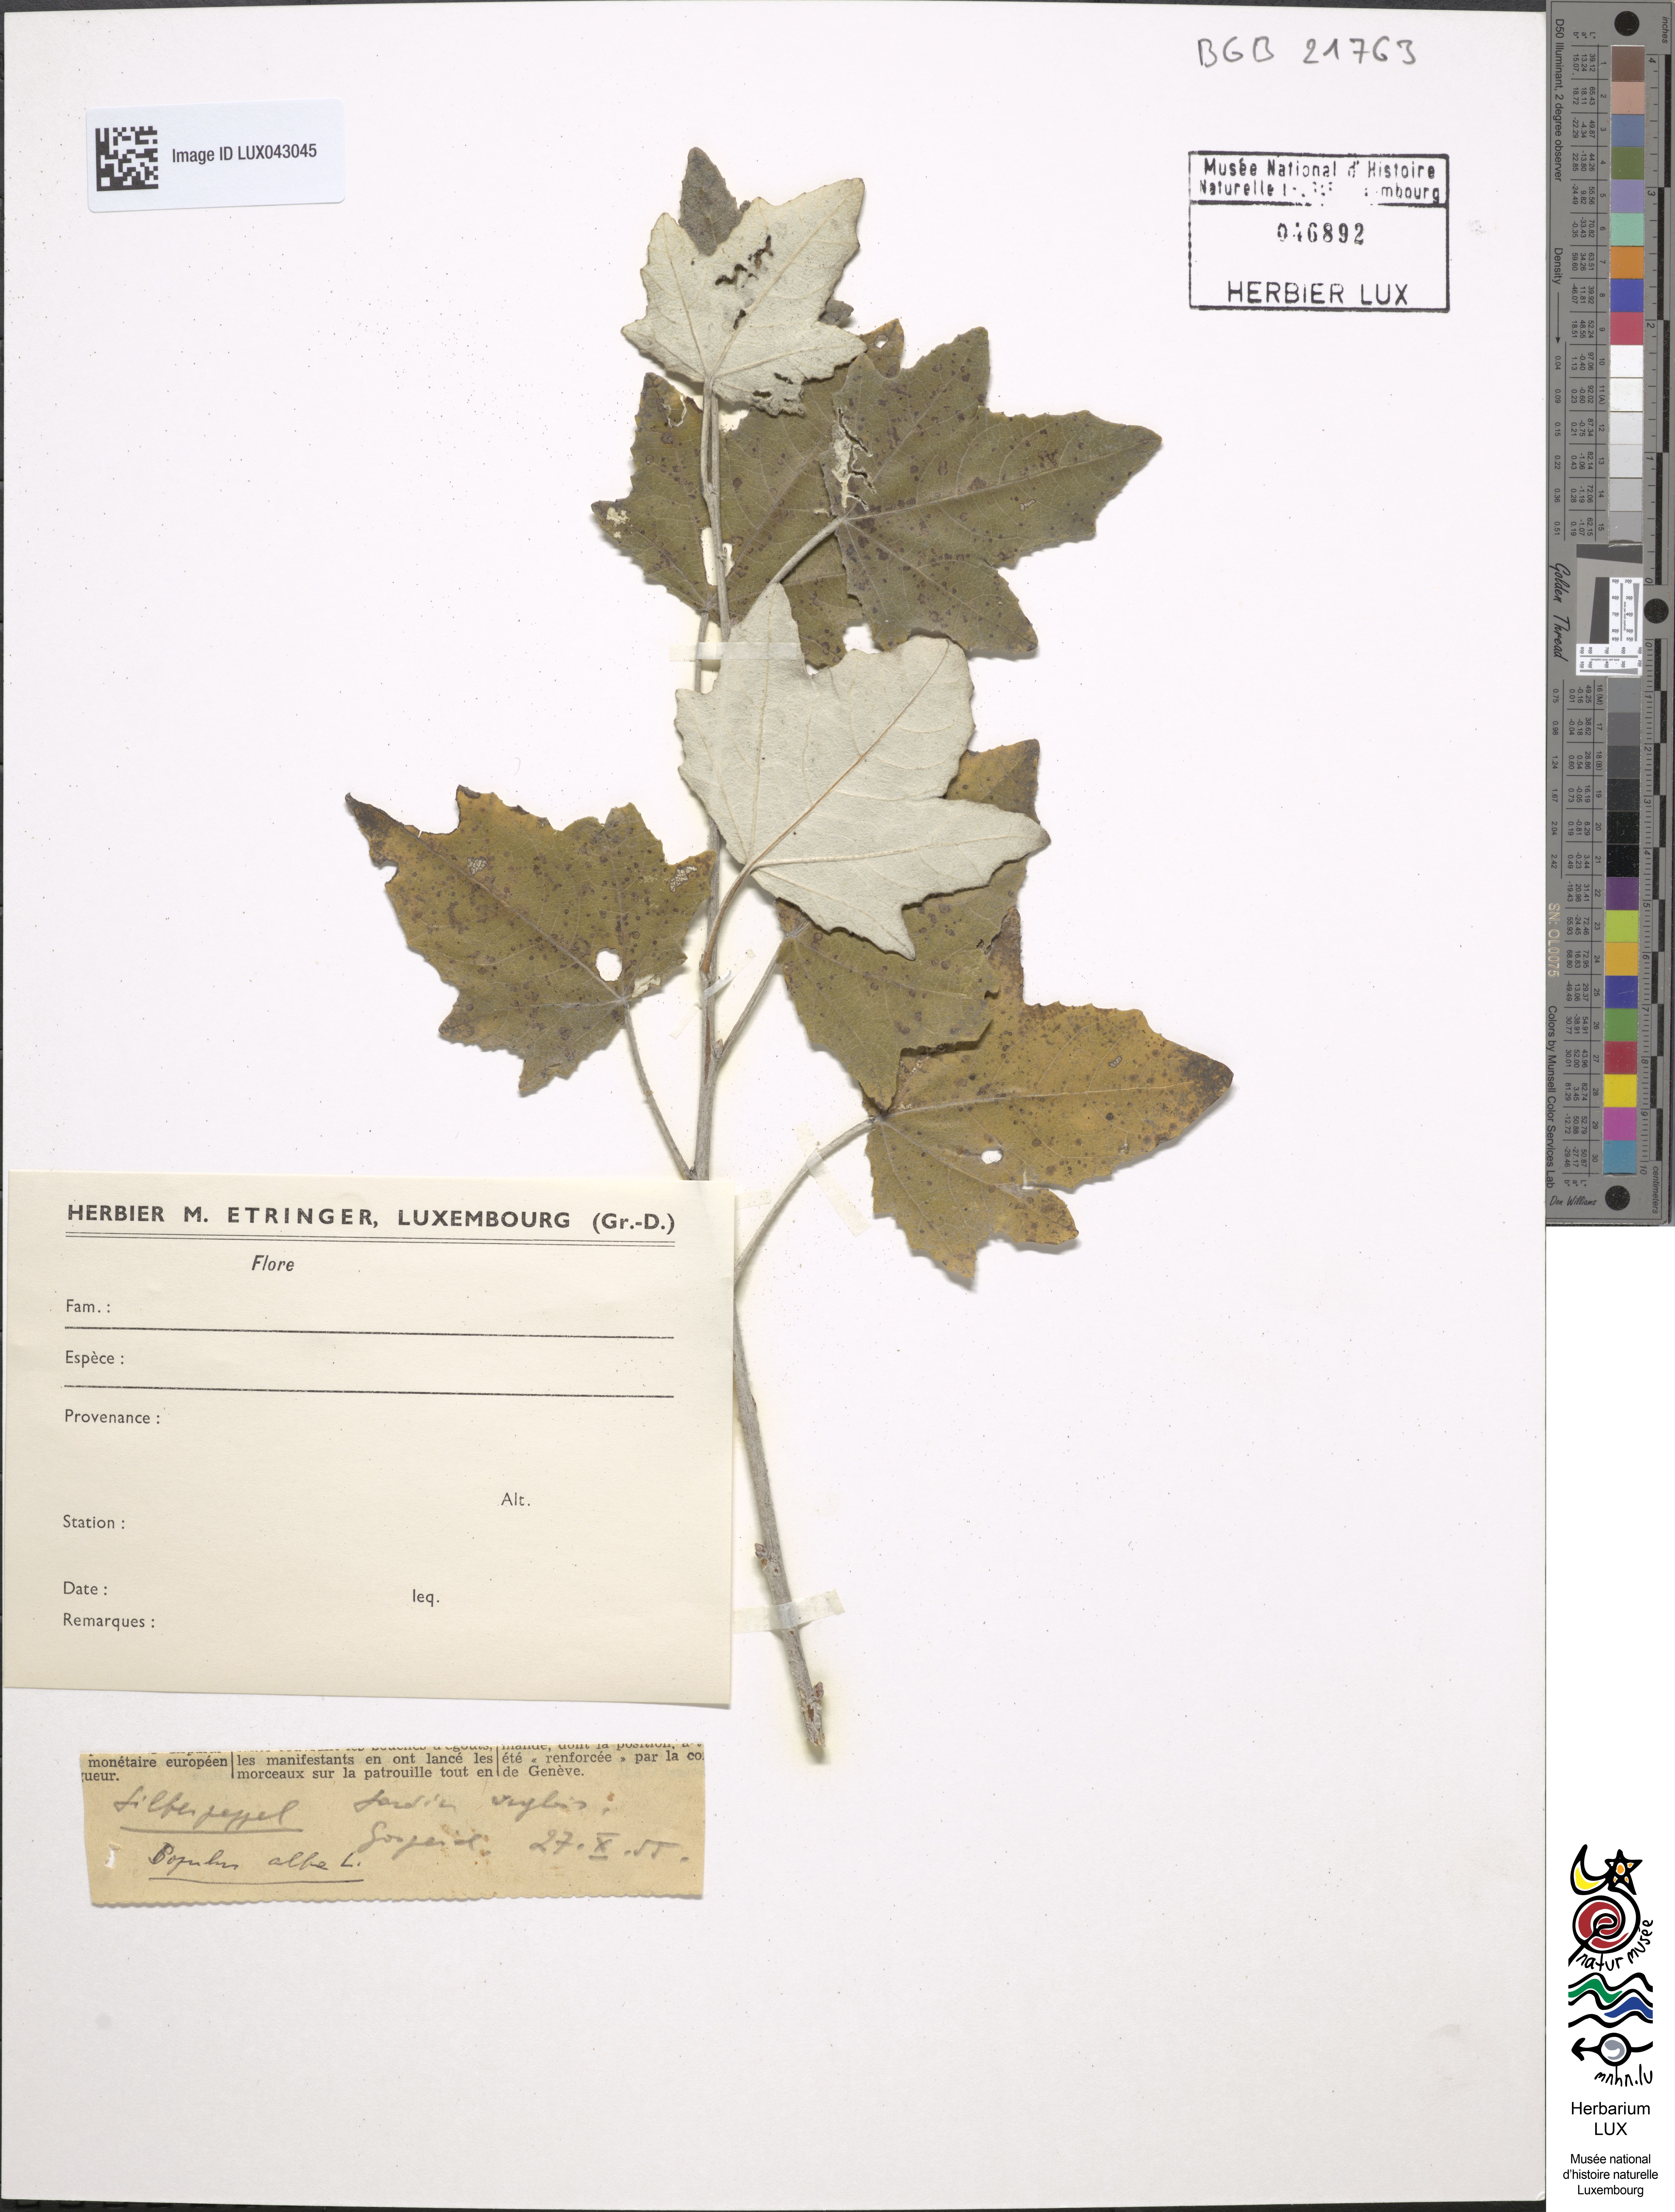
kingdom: Plantae
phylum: Tracheophyta
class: Magnoliopsida
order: Malpighiales
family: Salicaceae
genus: Populus
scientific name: Populus alba
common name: White poplar
